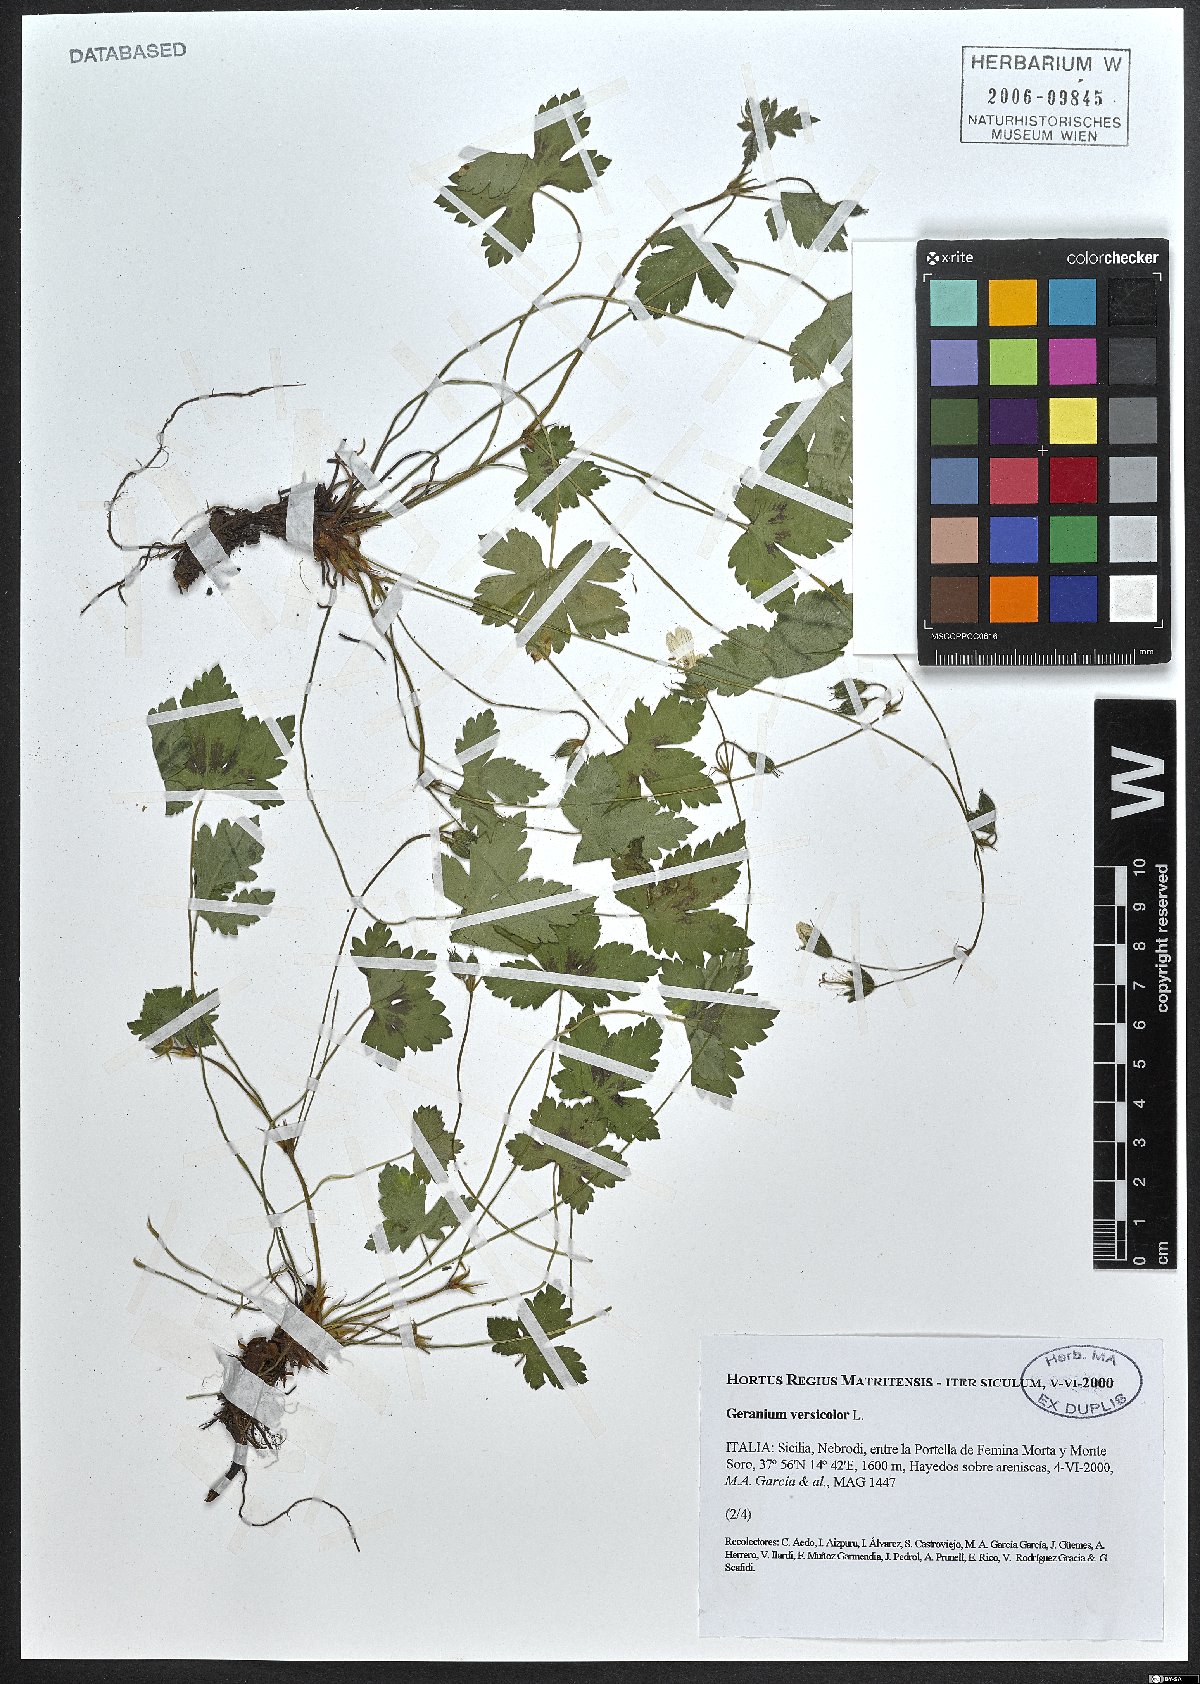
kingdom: Plantae
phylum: Tracheophyta
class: Magnoliopsida
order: Geraniales
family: Geraniaceae
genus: Geranium
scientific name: Geranium versicolor
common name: Pencilled crane's-bill
